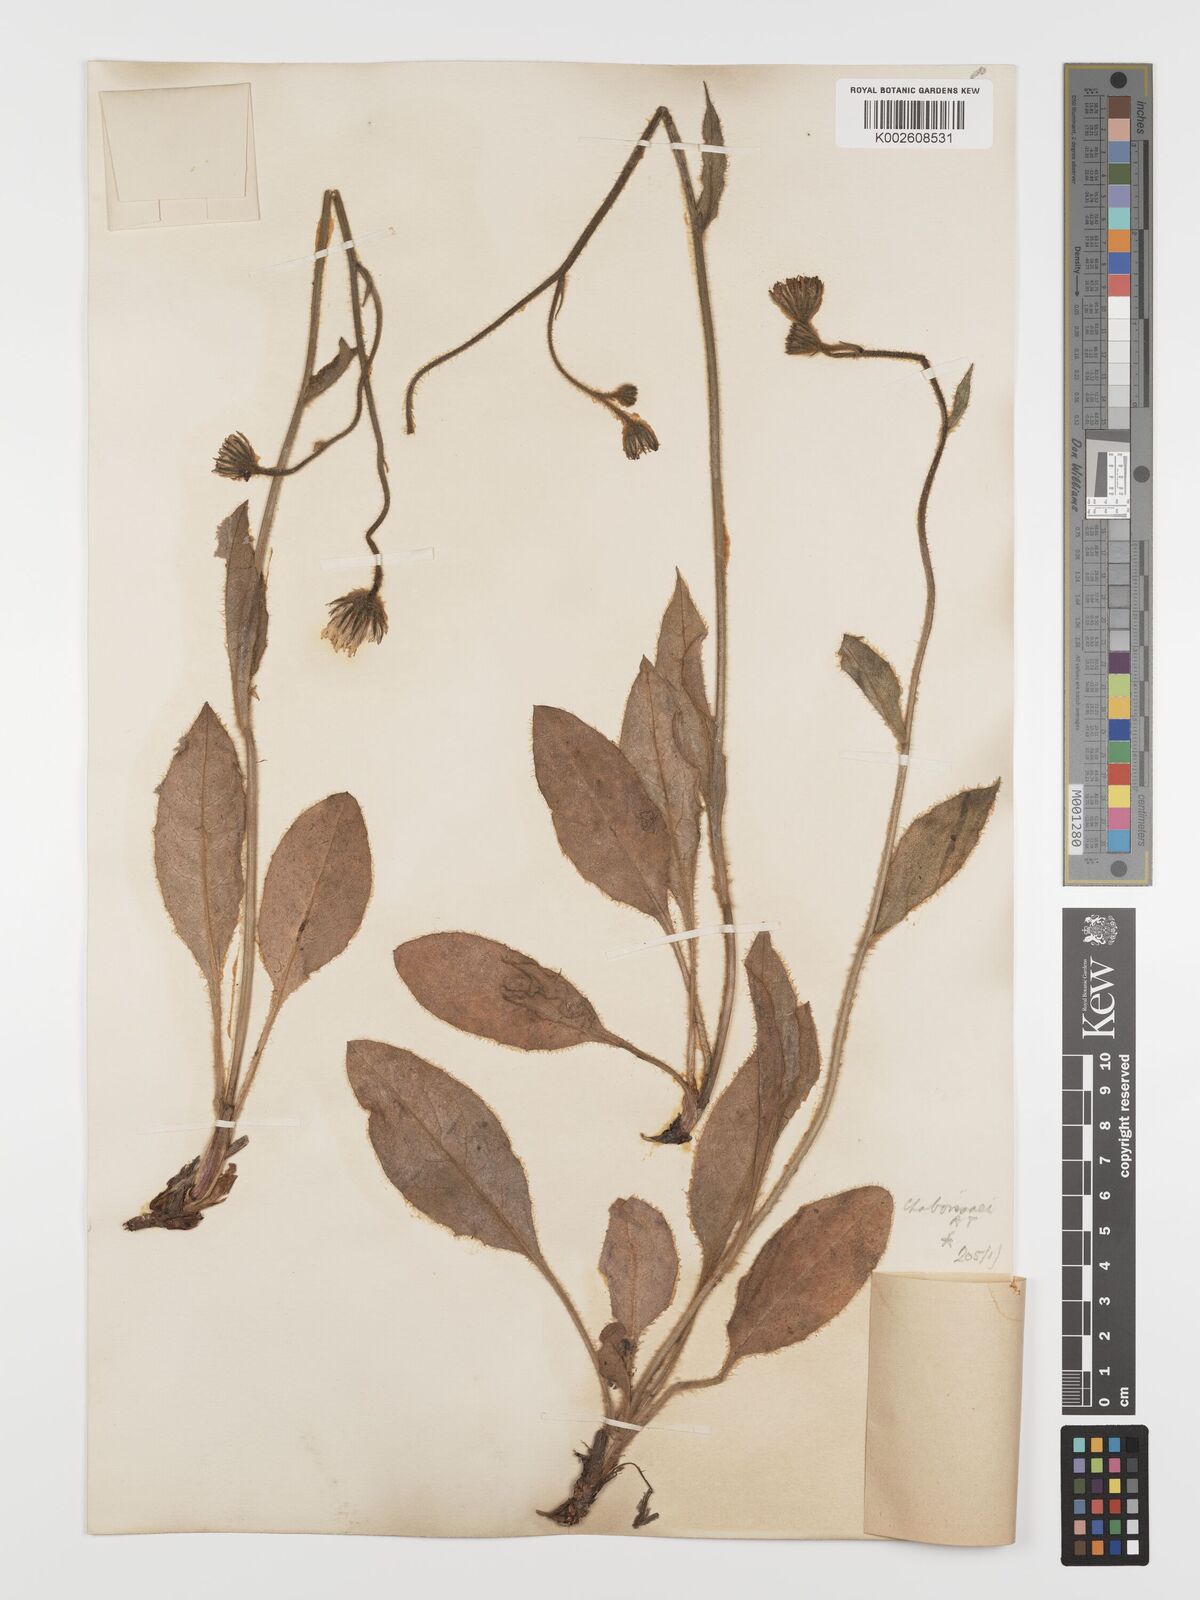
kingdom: Plantae
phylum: Tracheophyta
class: Magnoliopsida
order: Asterales
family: Asteraceae
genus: Hieracium
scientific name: Hieracium chaboissaei
